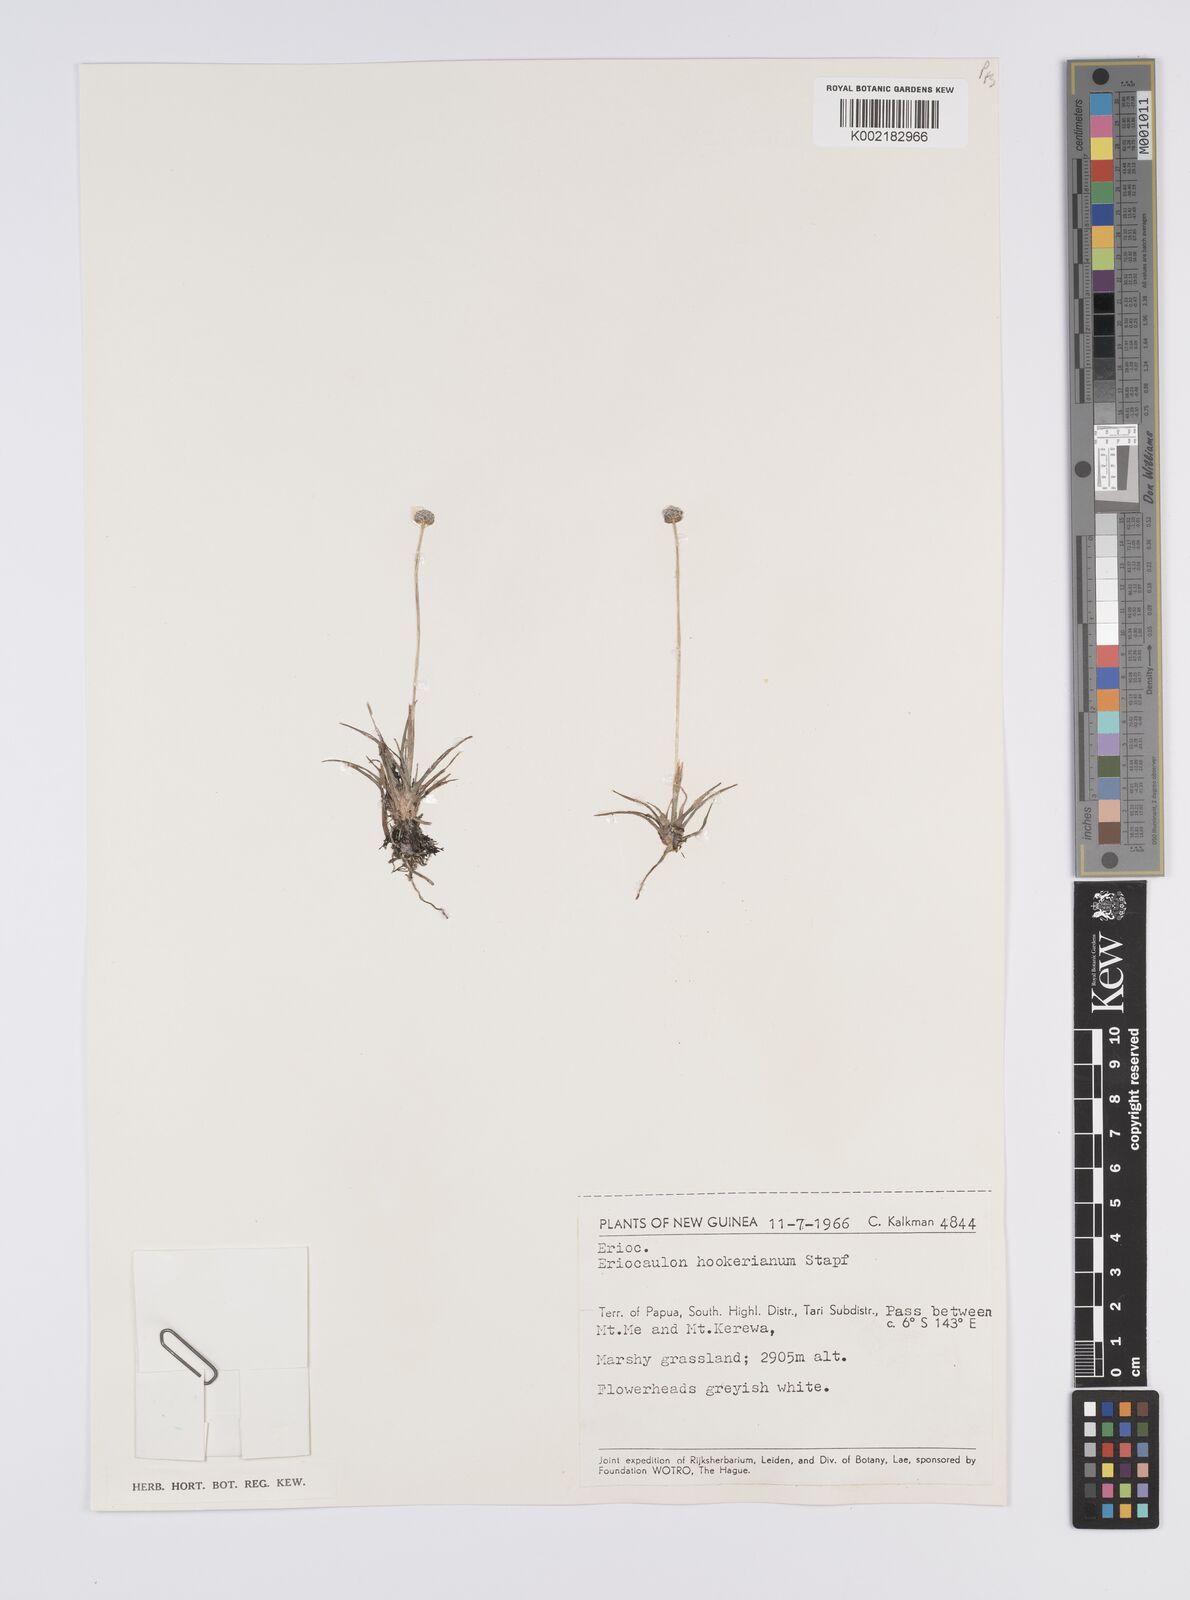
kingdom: Plantae
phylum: Tracheophyta
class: Liliopsida
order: Poales
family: Eriocaulaceae
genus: Eriocaulon
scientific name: Eriocaulon hookerianum
